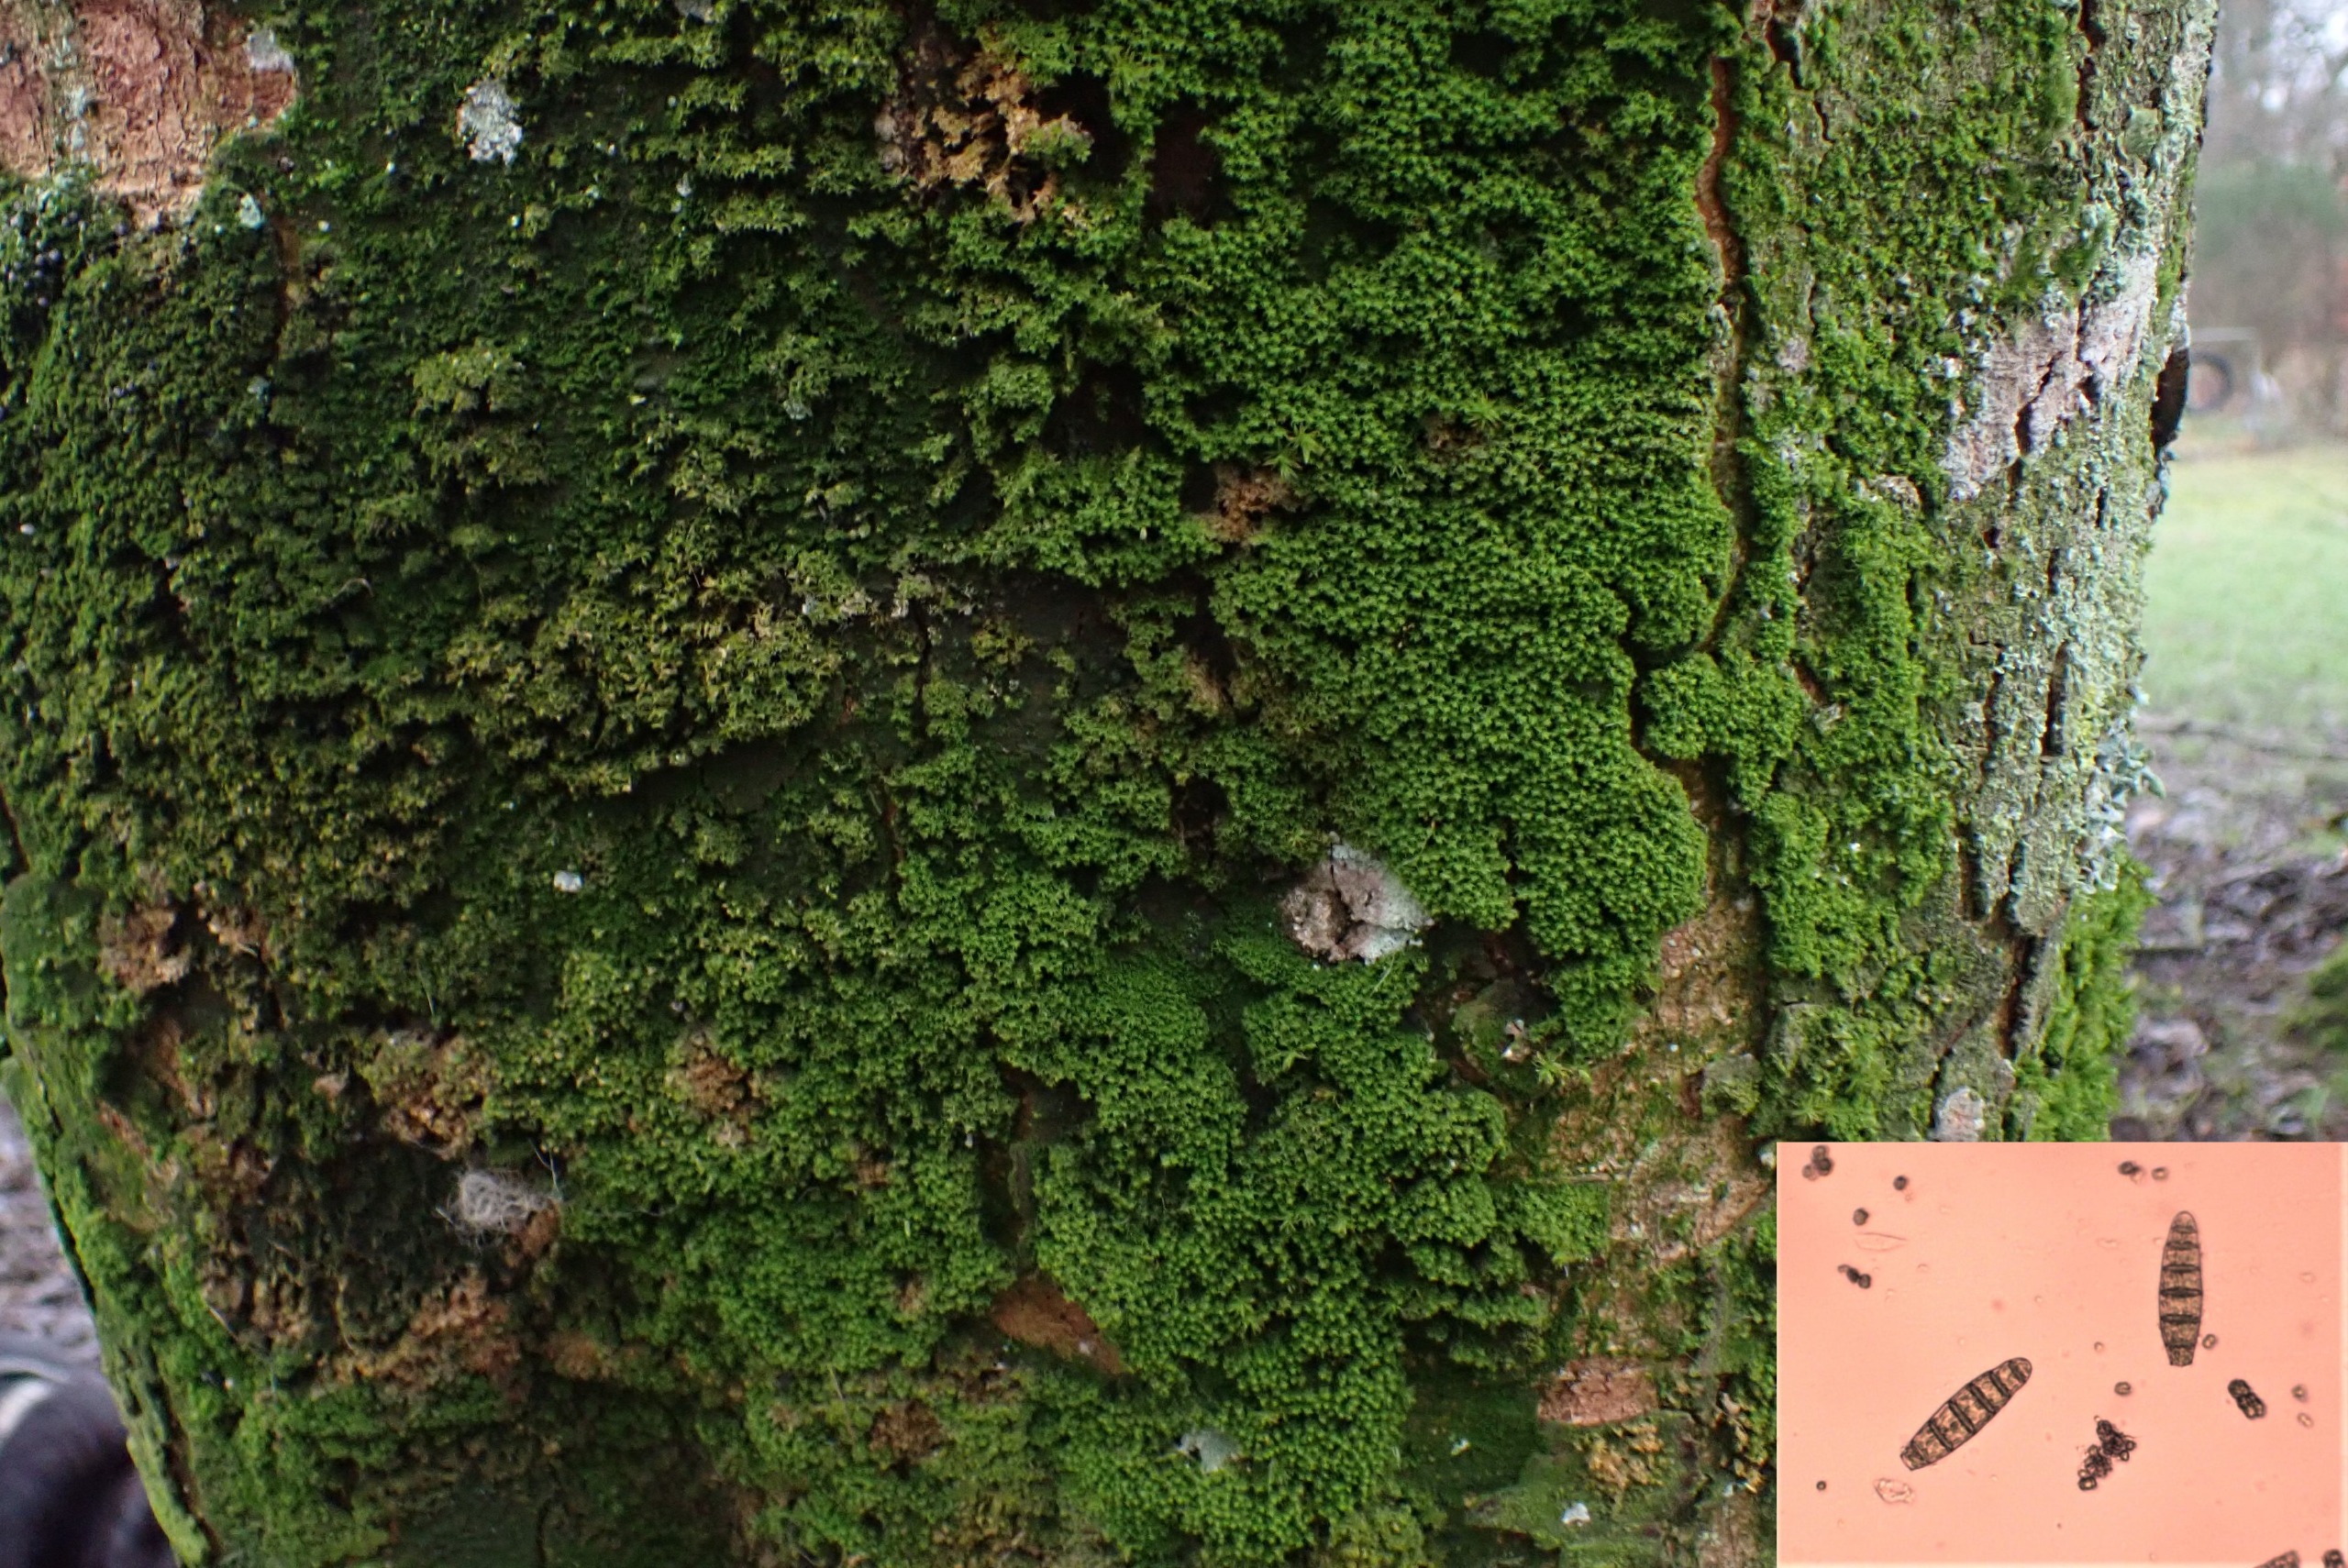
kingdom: Plantae
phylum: Bryophyta
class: Bryopsida
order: Orthotrichales
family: Orthotrichaceae
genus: Zygodon
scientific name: Zygodon conoideus
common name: Tand-køllemos
